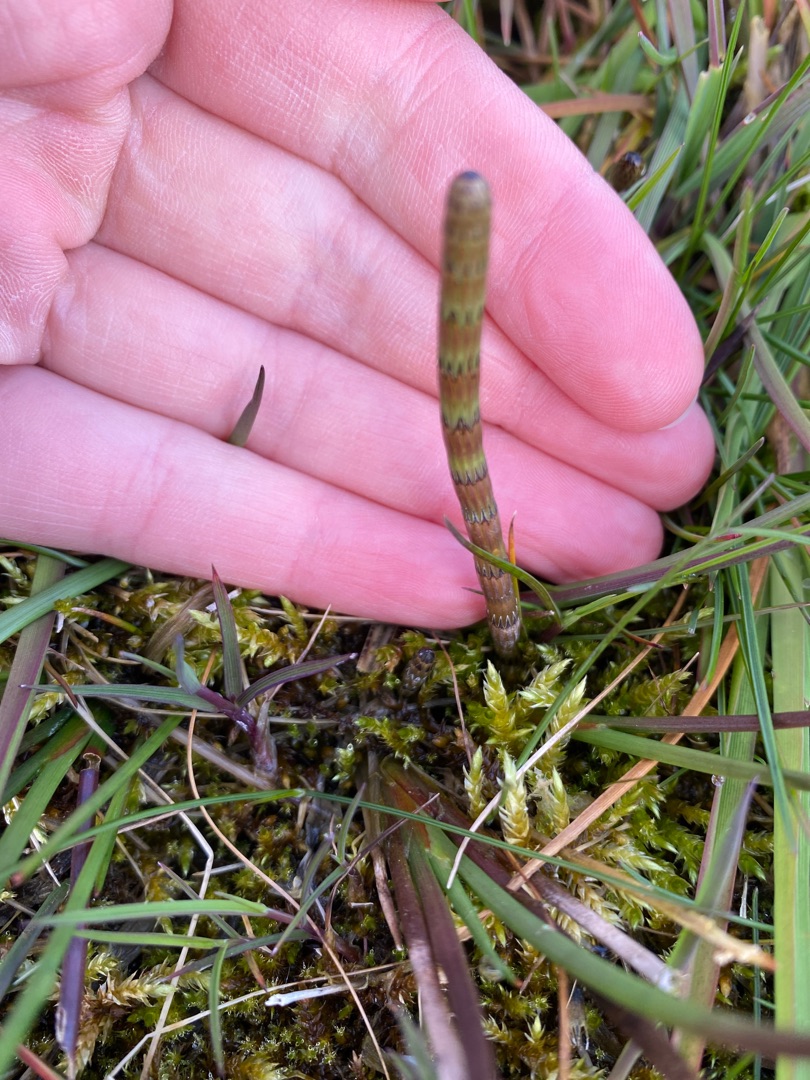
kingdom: Plantae
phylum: Tracheophyta
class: Polypodiopsida
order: Equisetales
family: Equisetaceae
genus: Equisetum
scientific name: Equisetum fluviatile
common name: Dynd-padderok
